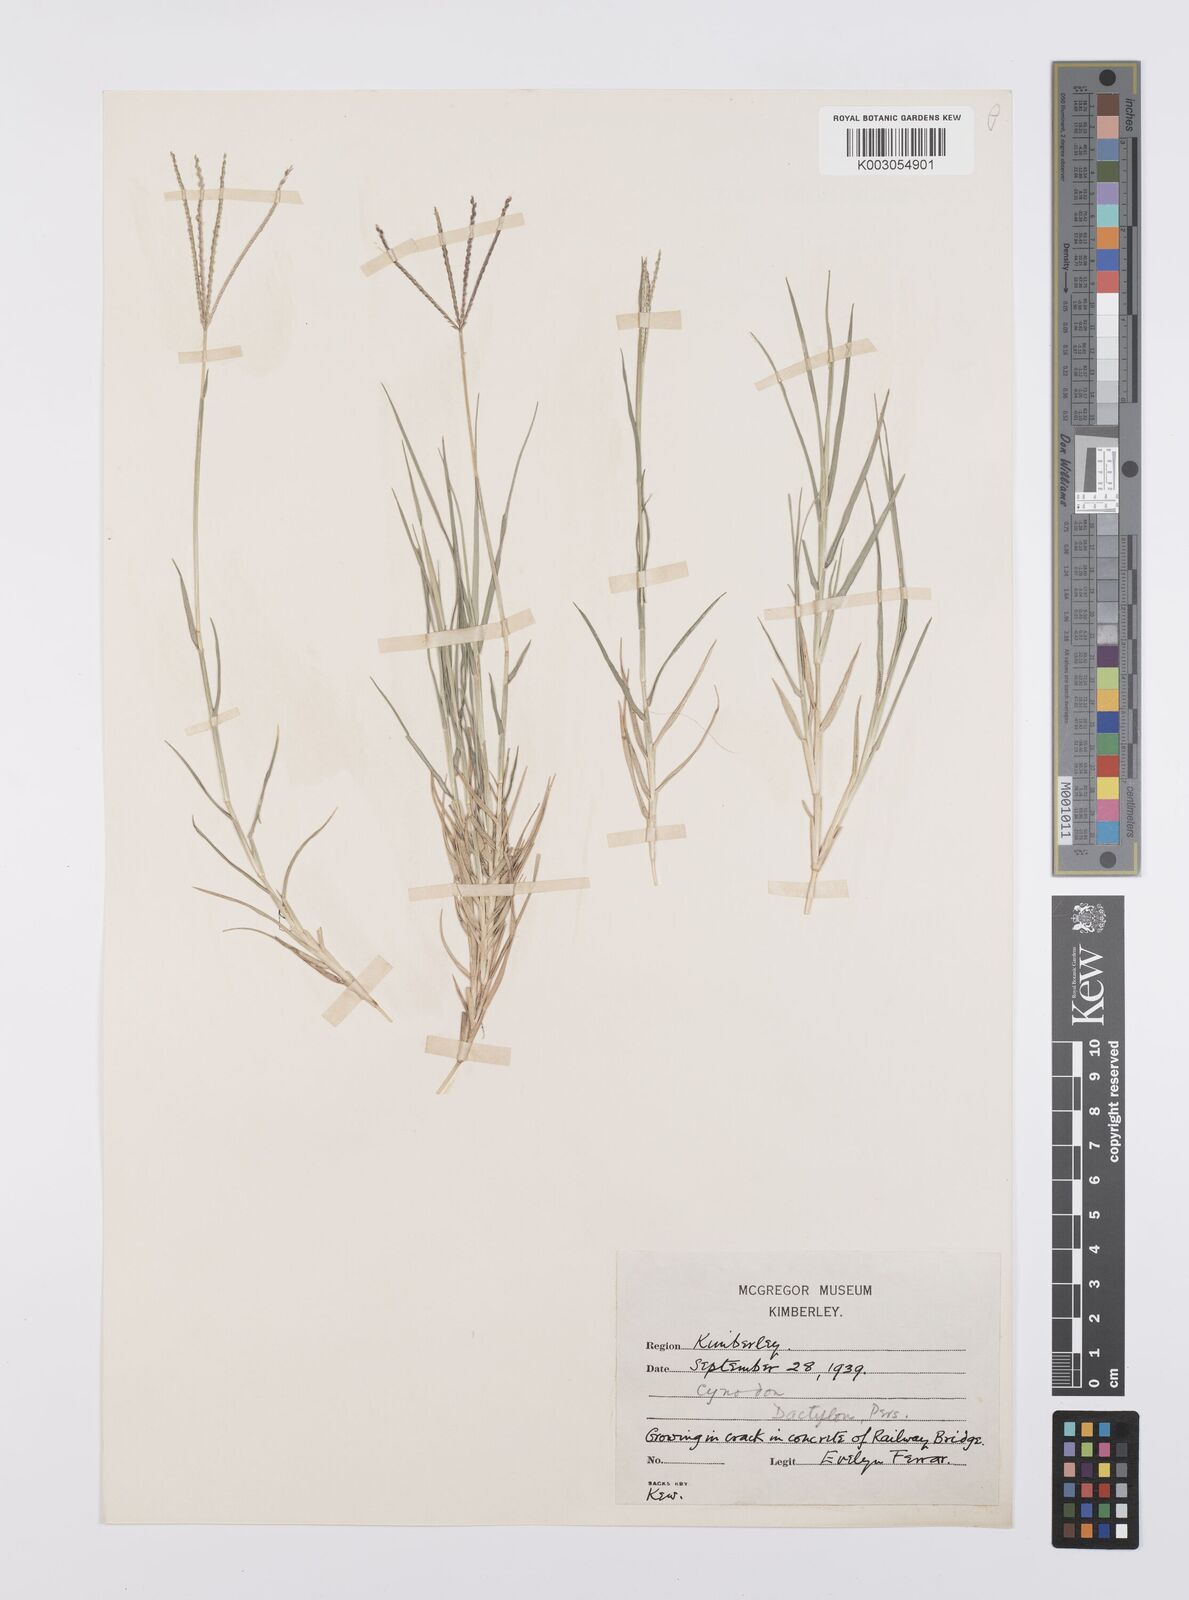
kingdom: Plantae
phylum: Tracheophyta
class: Liliopsida
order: Poales
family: Poaceae
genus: Cynodon
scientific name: Cynodon dactylon
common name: Bermuda grass
